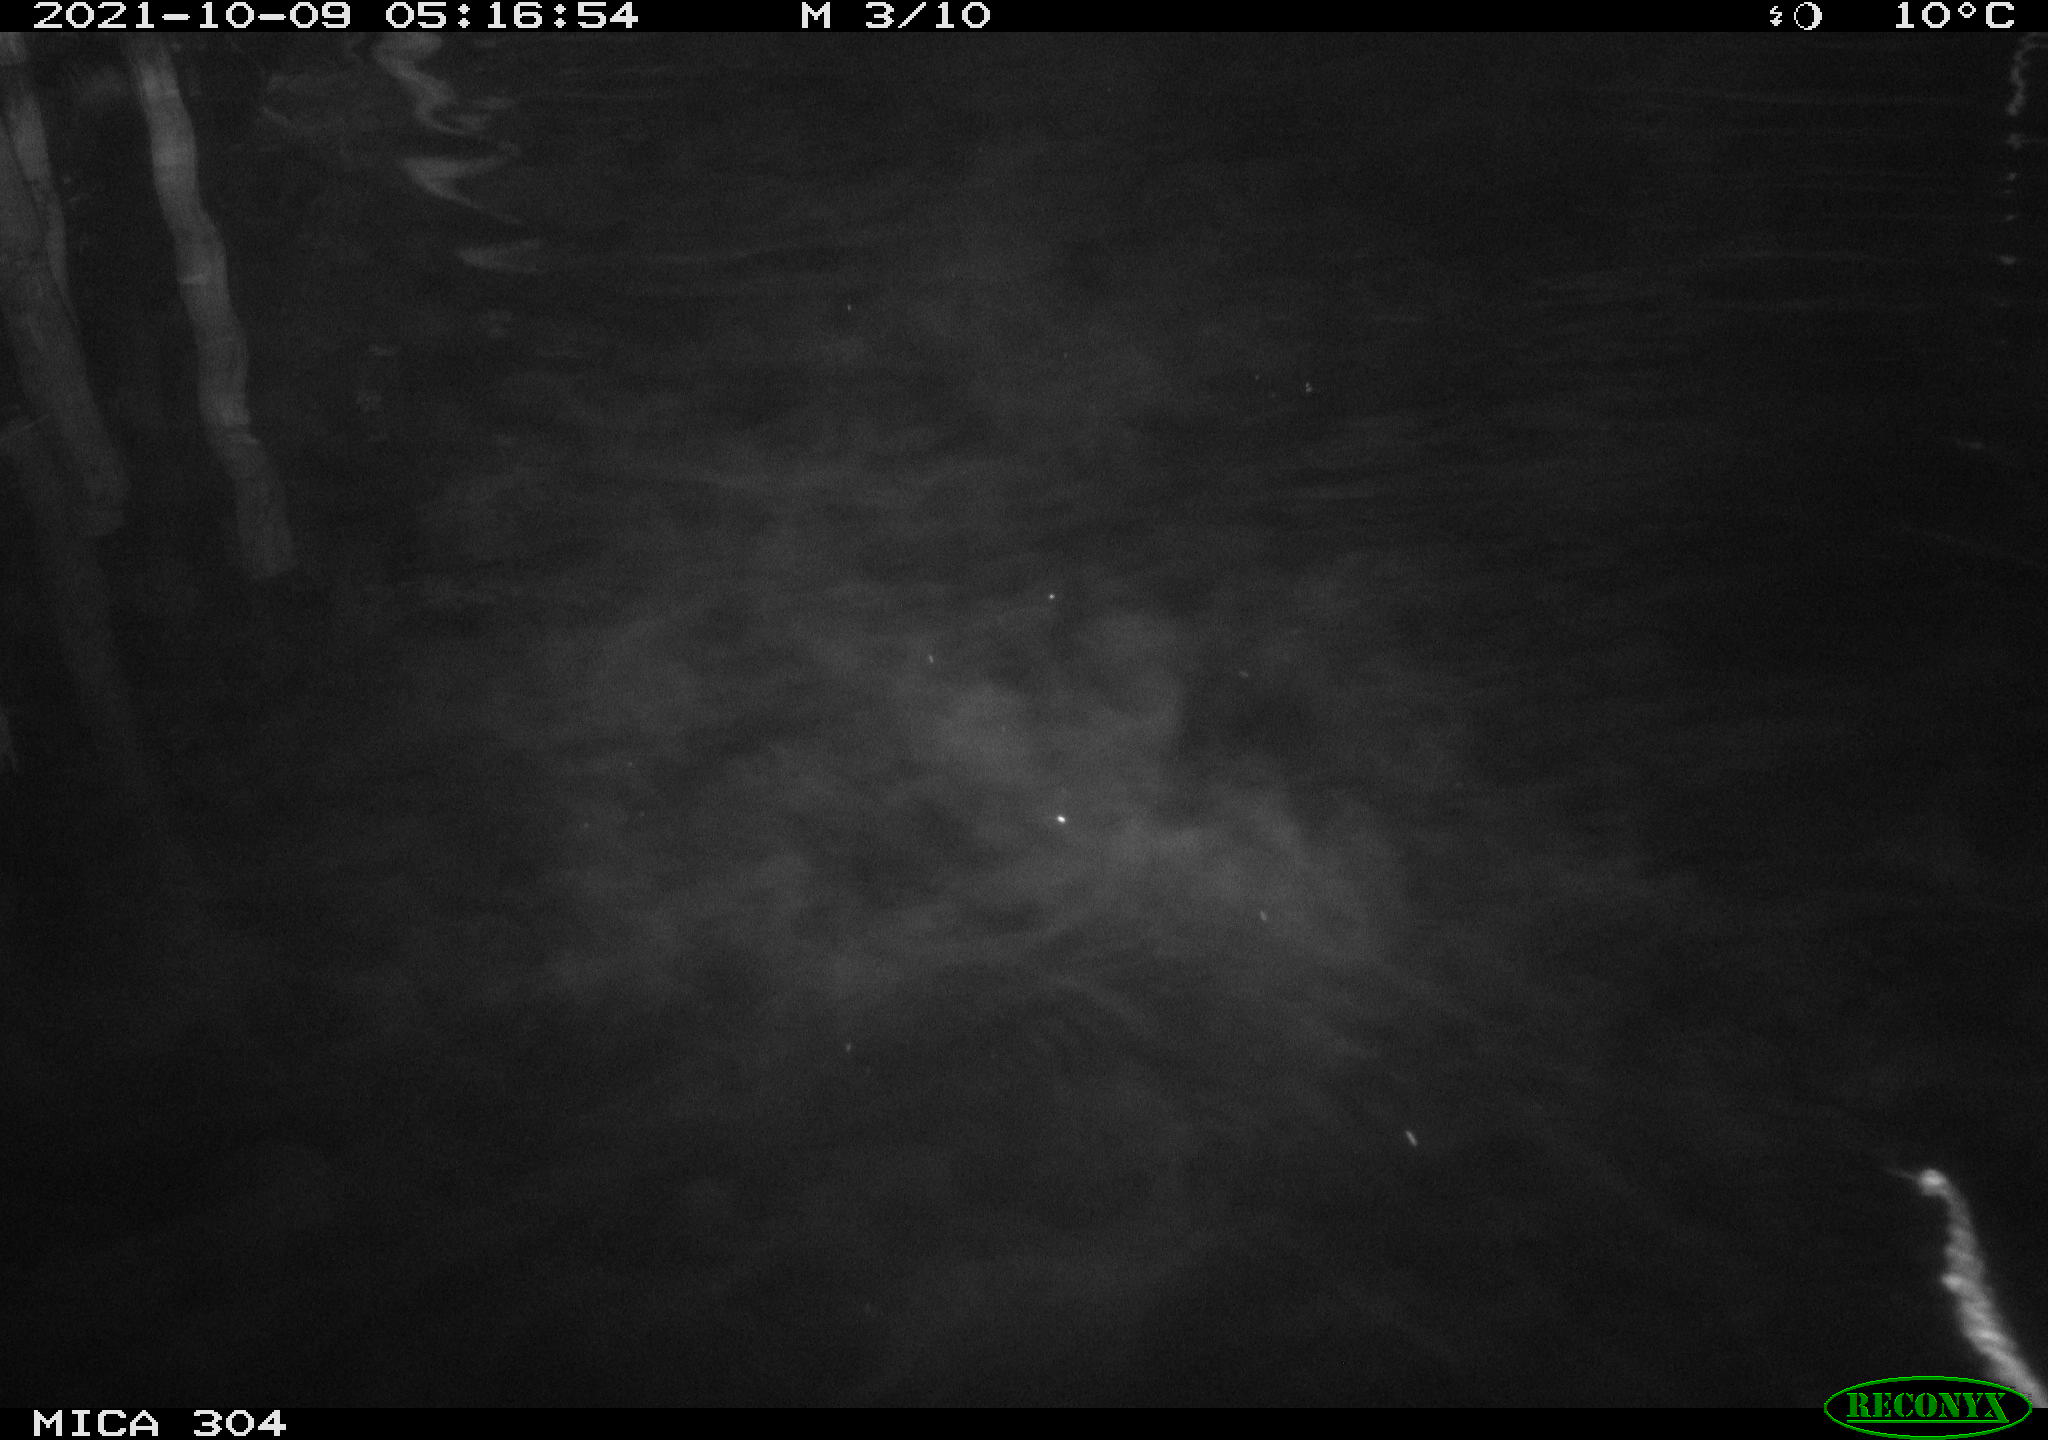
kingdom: Animalia
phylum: Chordata
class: Mammalia
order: Rodentia
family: Muridae
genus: Rattus
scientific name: Rattus norvegicus
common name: Brown rat
